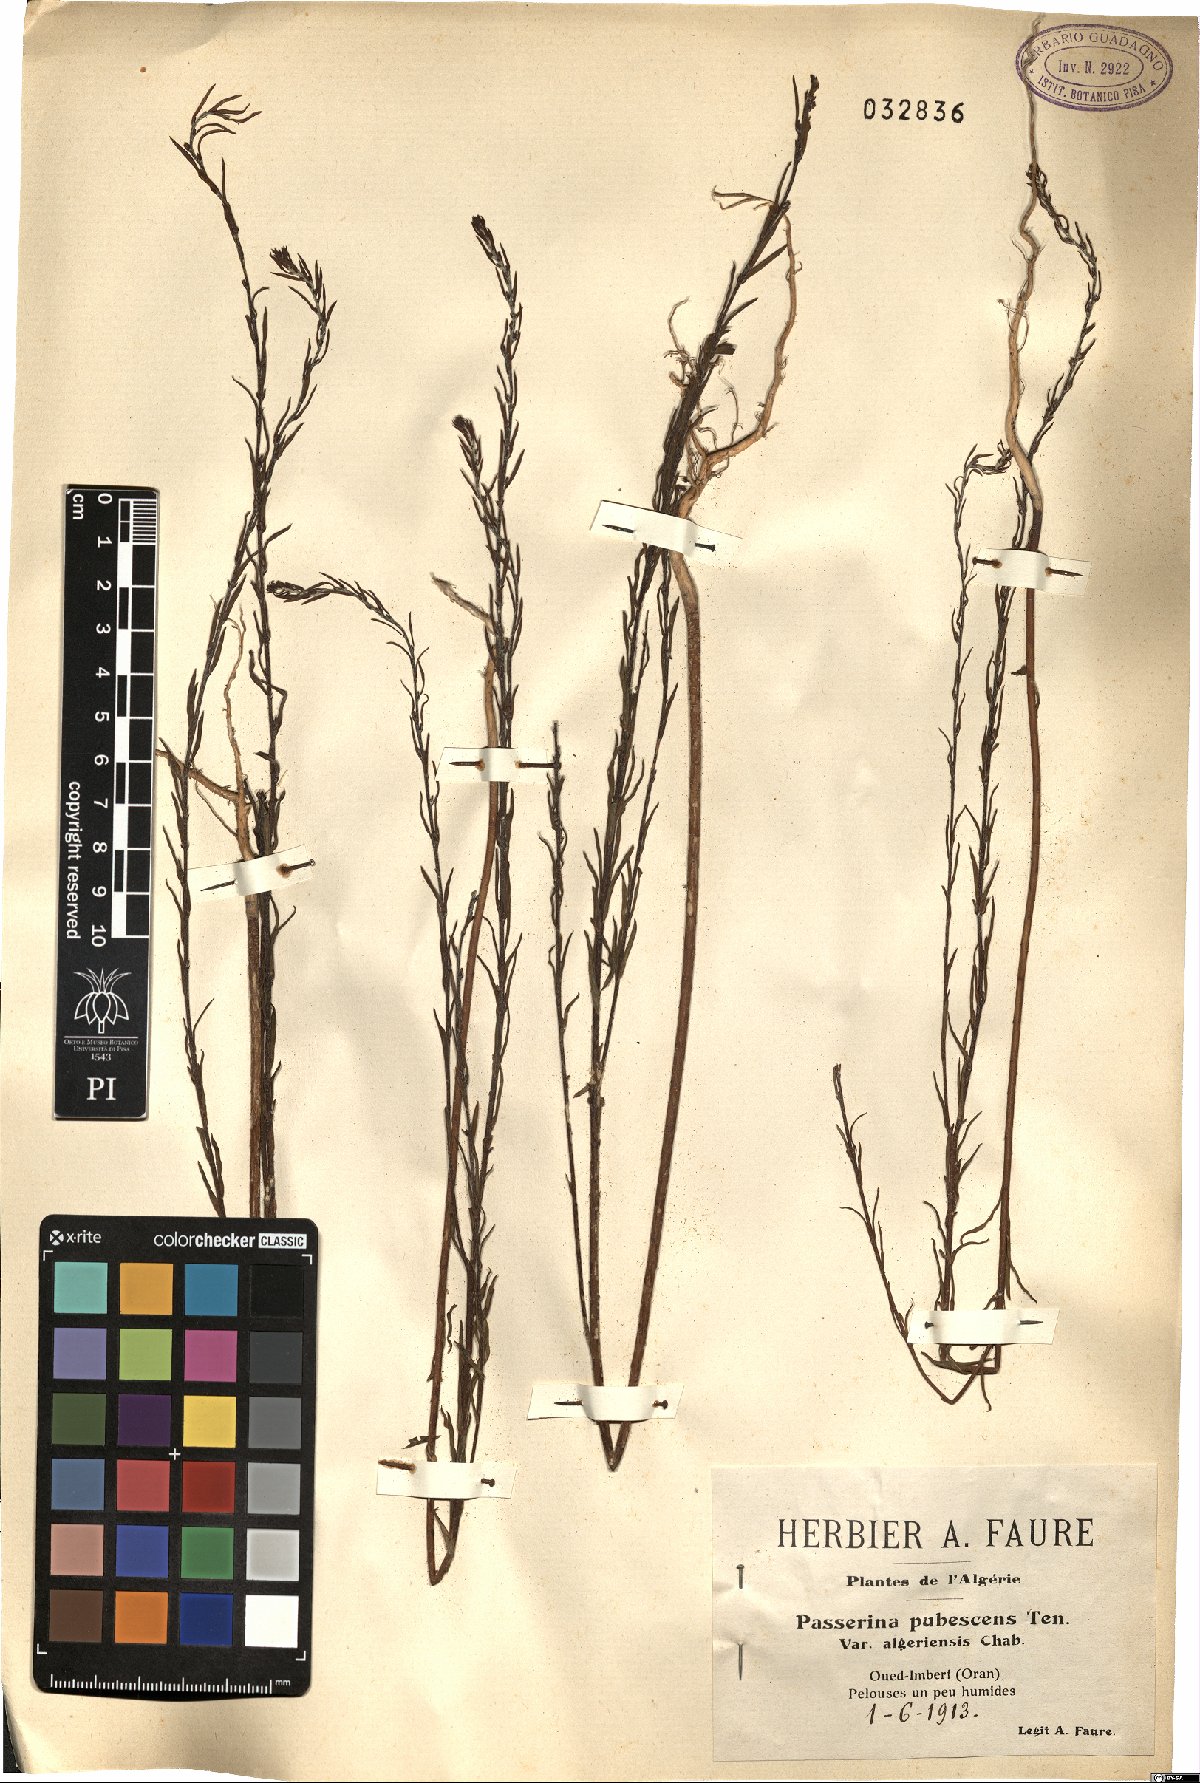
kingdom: Plantae
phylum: Tracheophyta
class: Magnoliopsida
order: Malvales
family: Thymelaeaceae
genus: Thymelaea
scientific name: Thymelaea passerina
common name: Annual thymelaea
